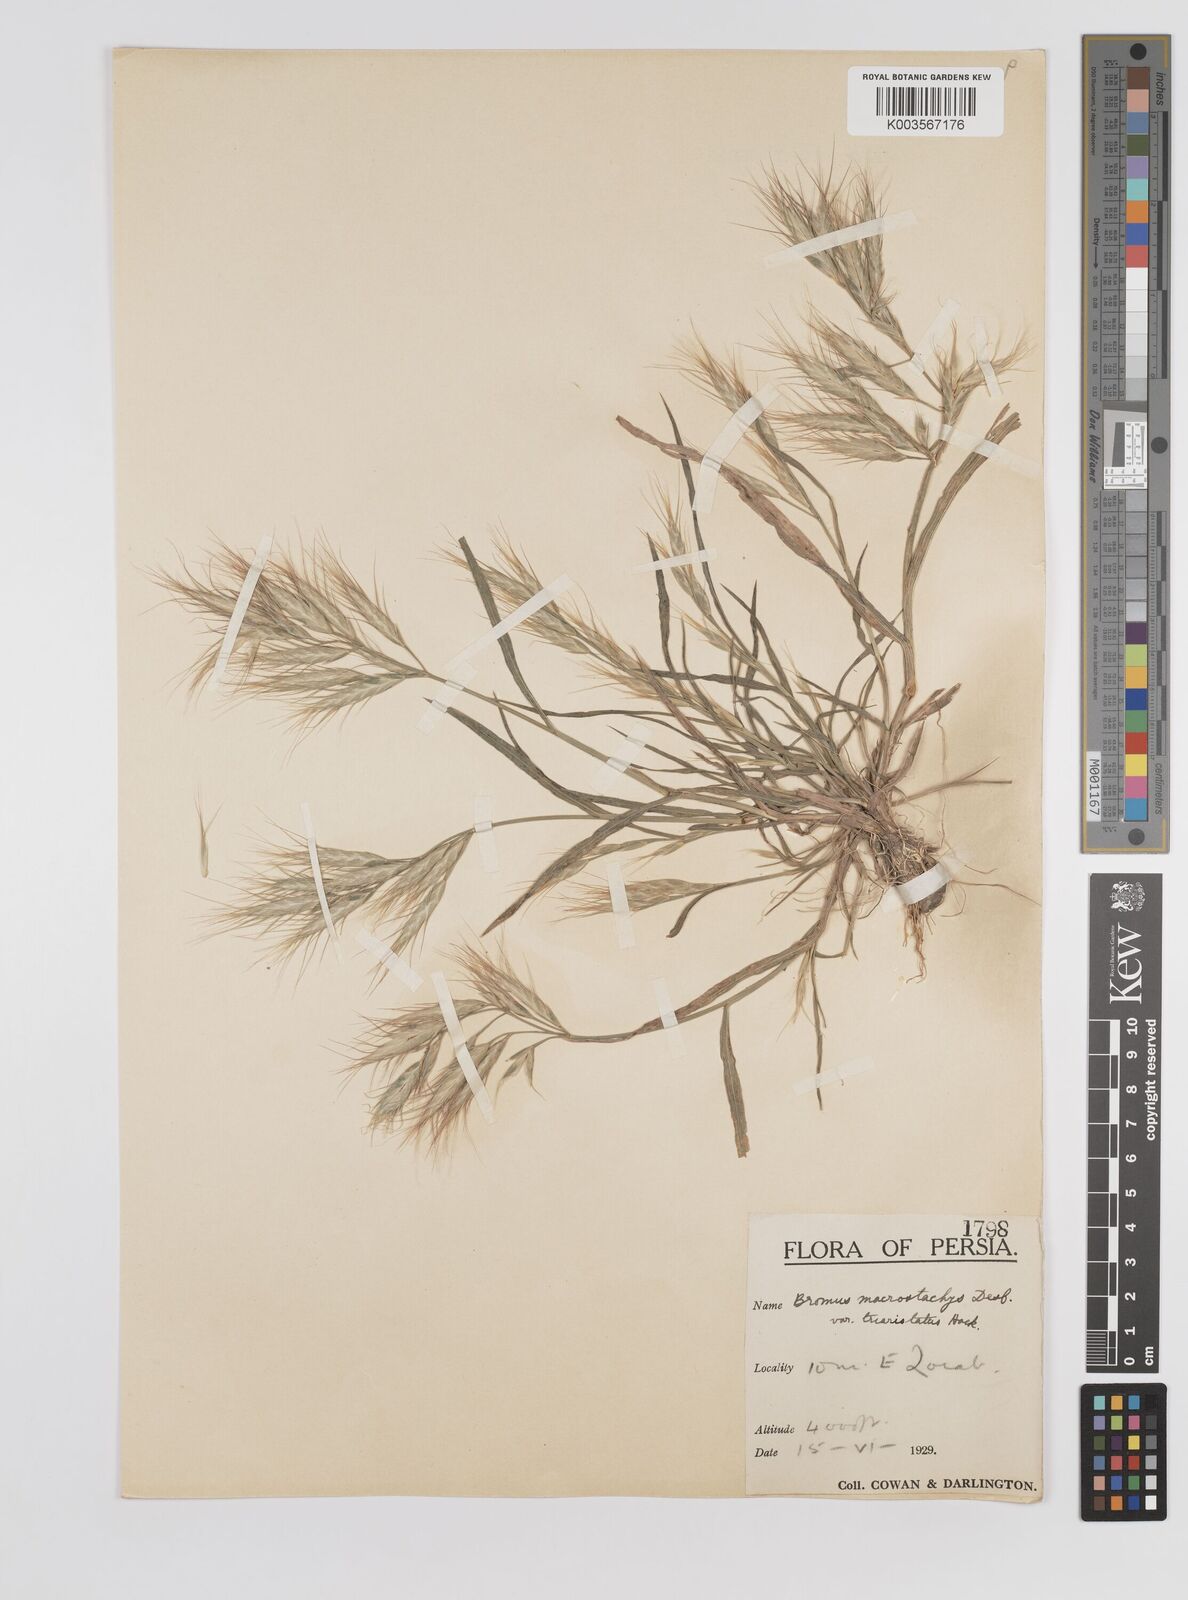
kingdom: Plantae
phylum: Tracheophyta
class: Liliopsida
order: Poales
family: Poaceae
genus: Bromus
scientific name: Bromus danthoniae
